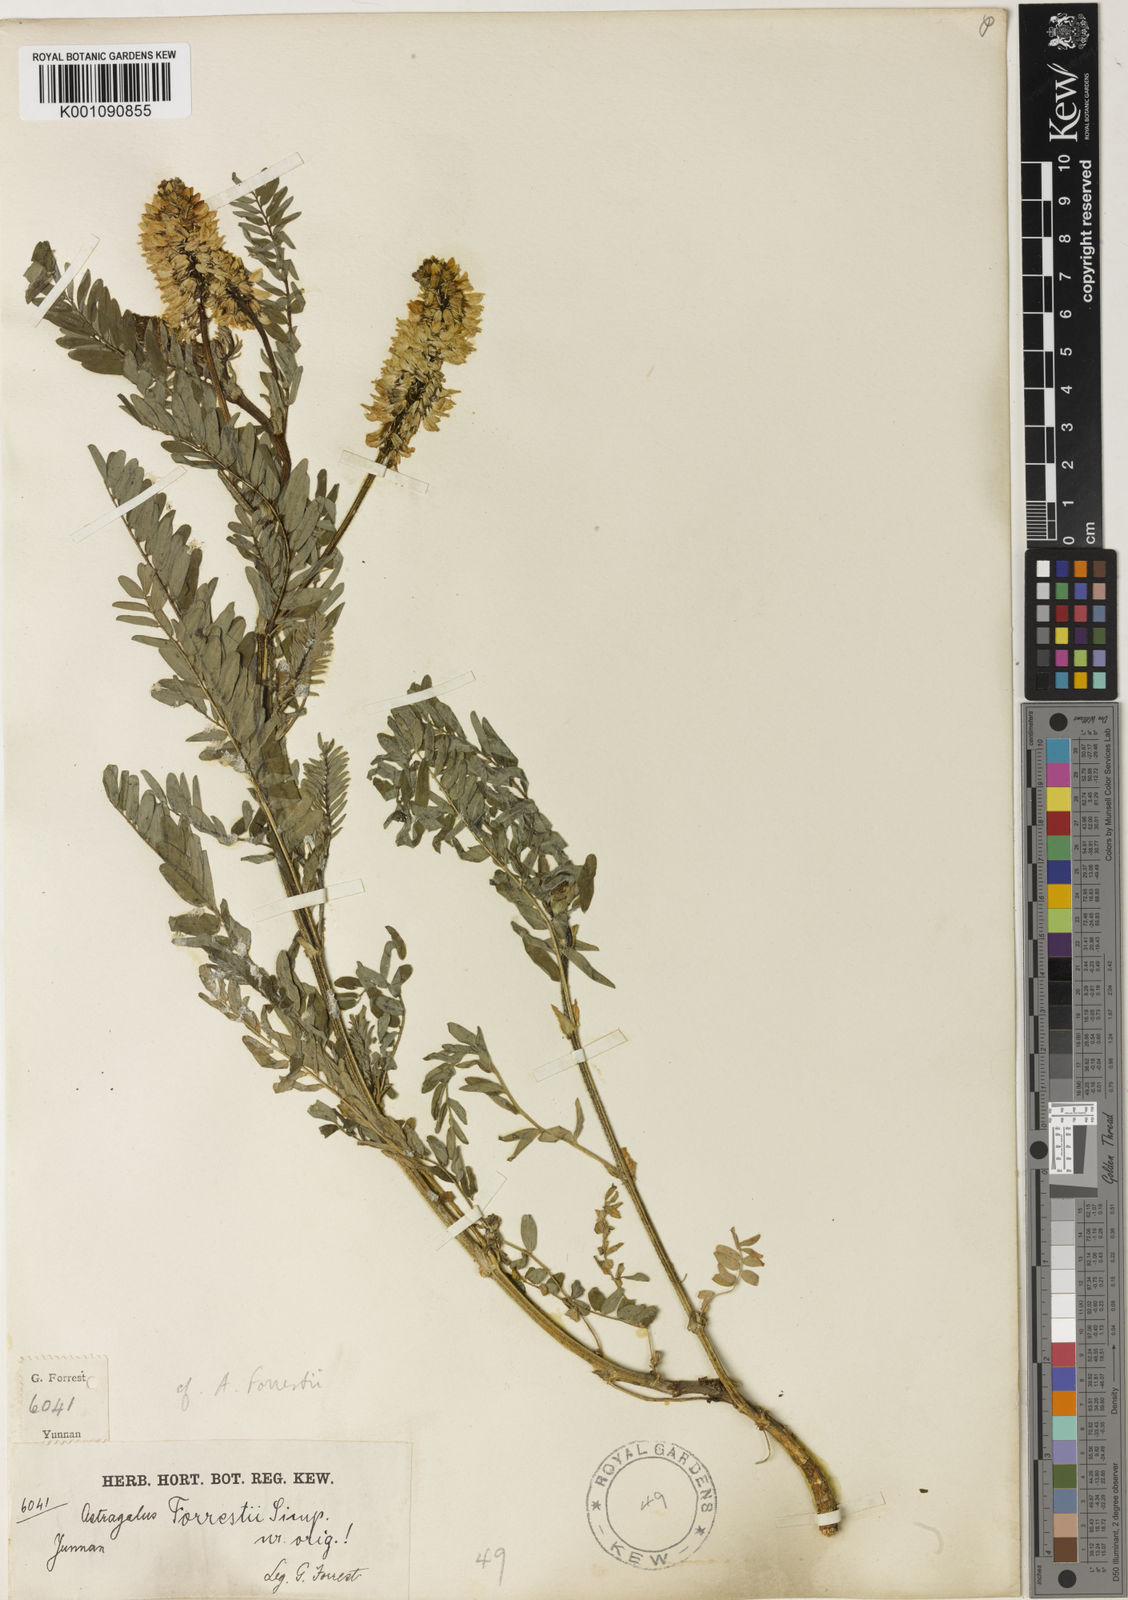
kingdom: Plantae
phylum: Tracheophyta
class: Magnoliopsida
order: Fabales
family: Fabaceae
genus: Astragalus
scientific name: Astragalus
